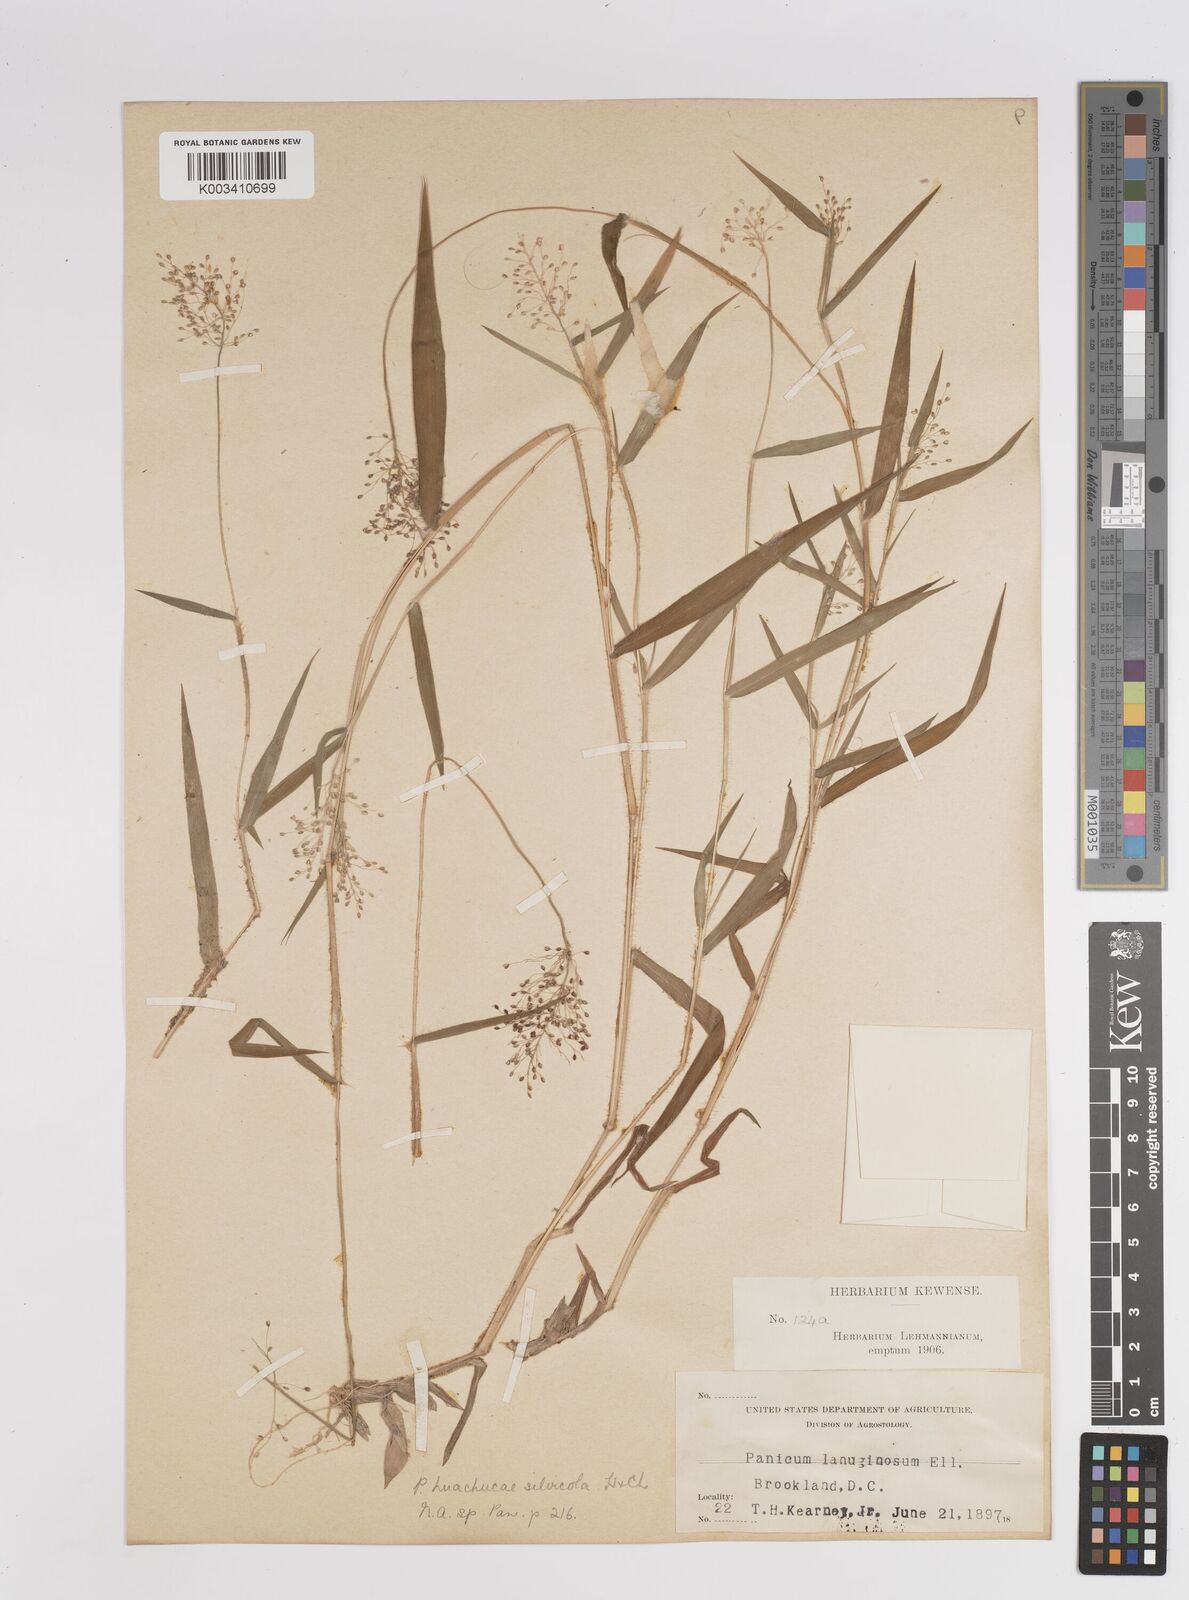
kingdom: Plantae
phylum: Tracheophyta
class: Liliopsida
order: Poales
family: Poaceae
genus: Dichanthelium
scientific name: Dichanthelium lanuginosum
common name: Woolly panicgrass
